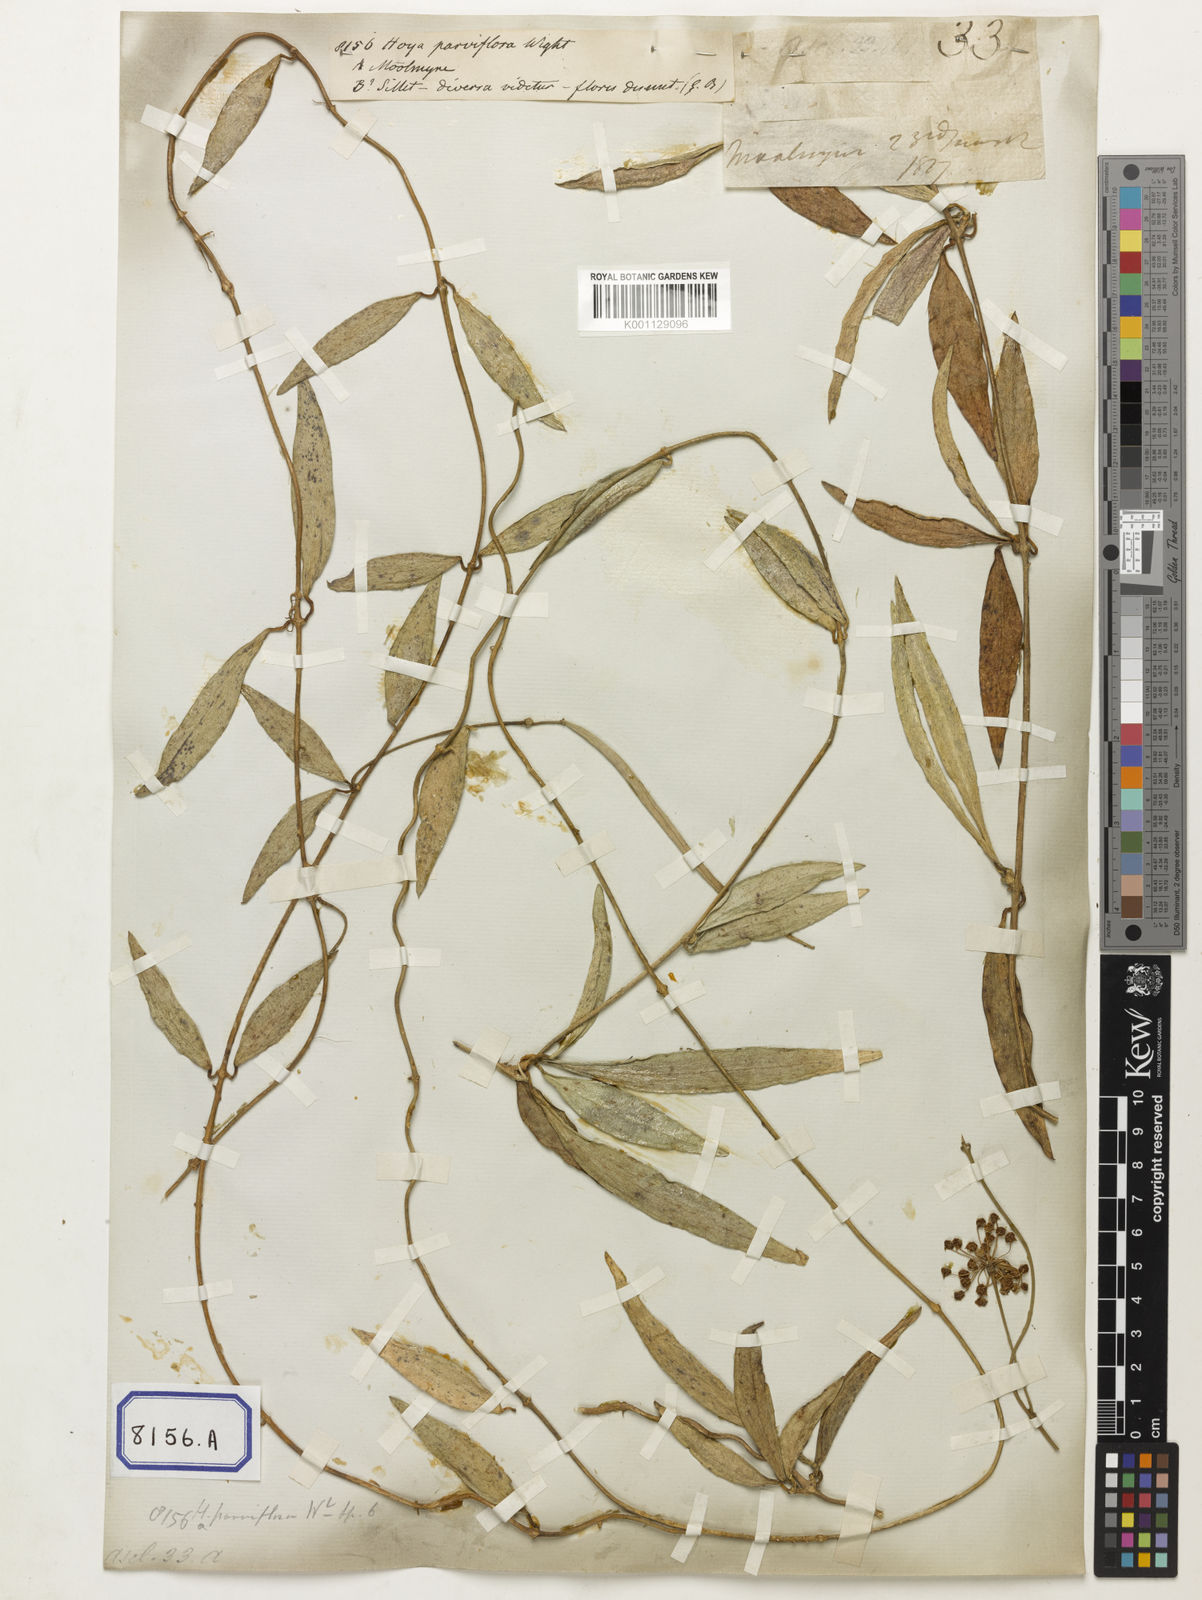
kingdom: Plantae
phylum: Tracheophyta
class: Magnoliopsida
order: Gentianales
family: Apocynaceae
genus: Hoya
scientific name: Hoya parviflora
